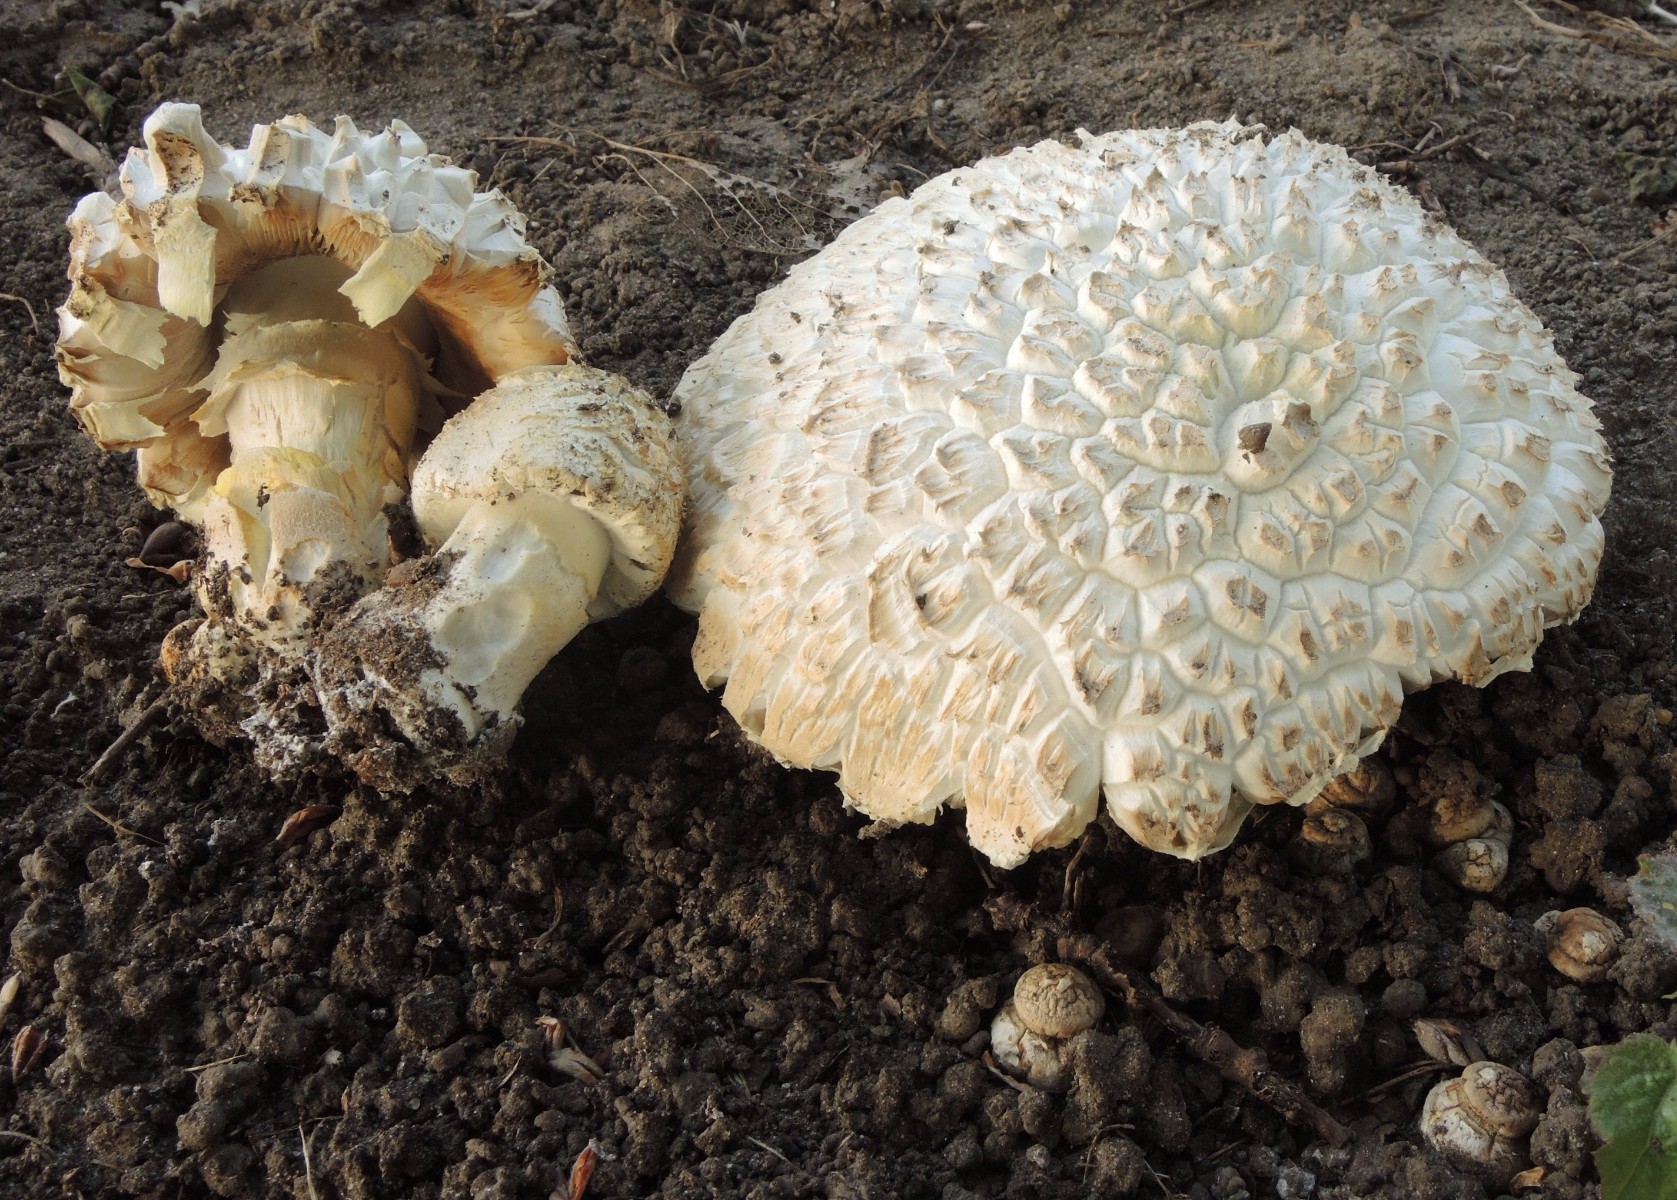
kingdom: Fungi
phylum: Basidiomycota
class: Agaricomycetes
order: Agaricales
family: Agaricaceae
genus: Agaricus
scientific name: Agaricus arvensis
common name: ager-champignon
